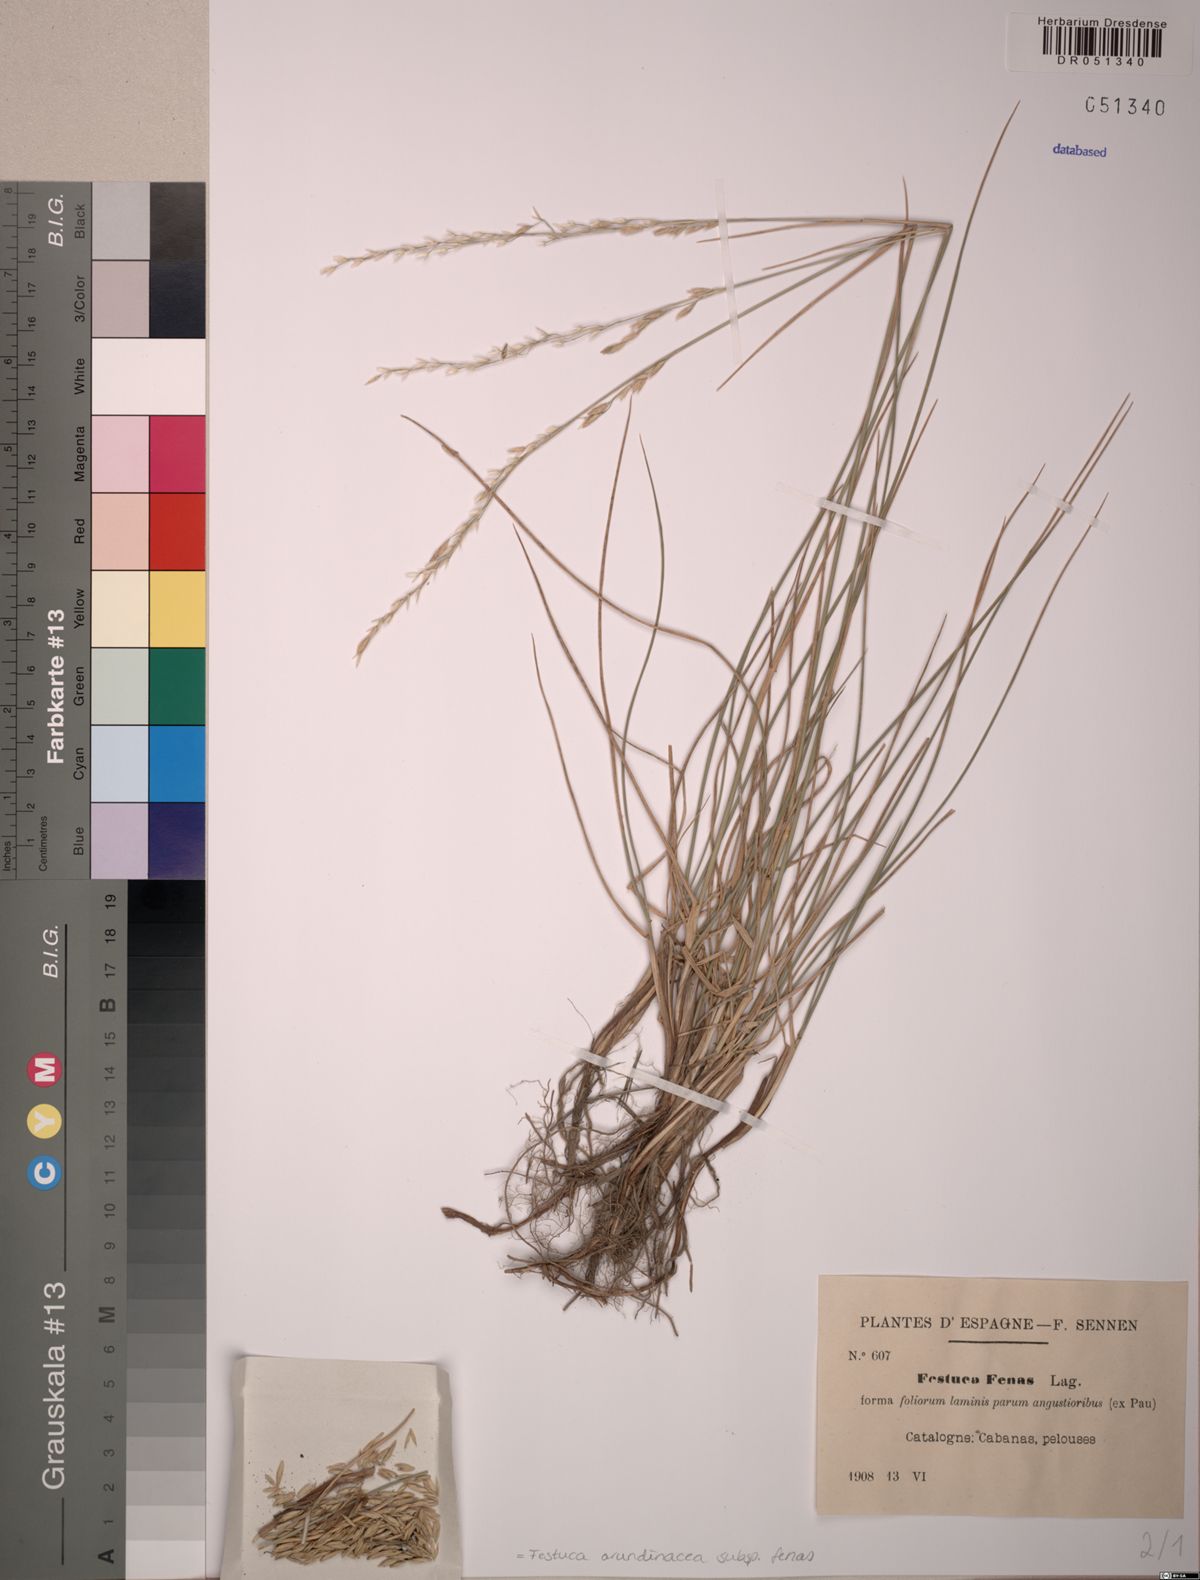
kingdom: Plantae
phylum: Tracheophyta
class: Liliopsida
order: Poales
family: Poaceae
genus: Lolium
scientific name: Lolium interruptum
